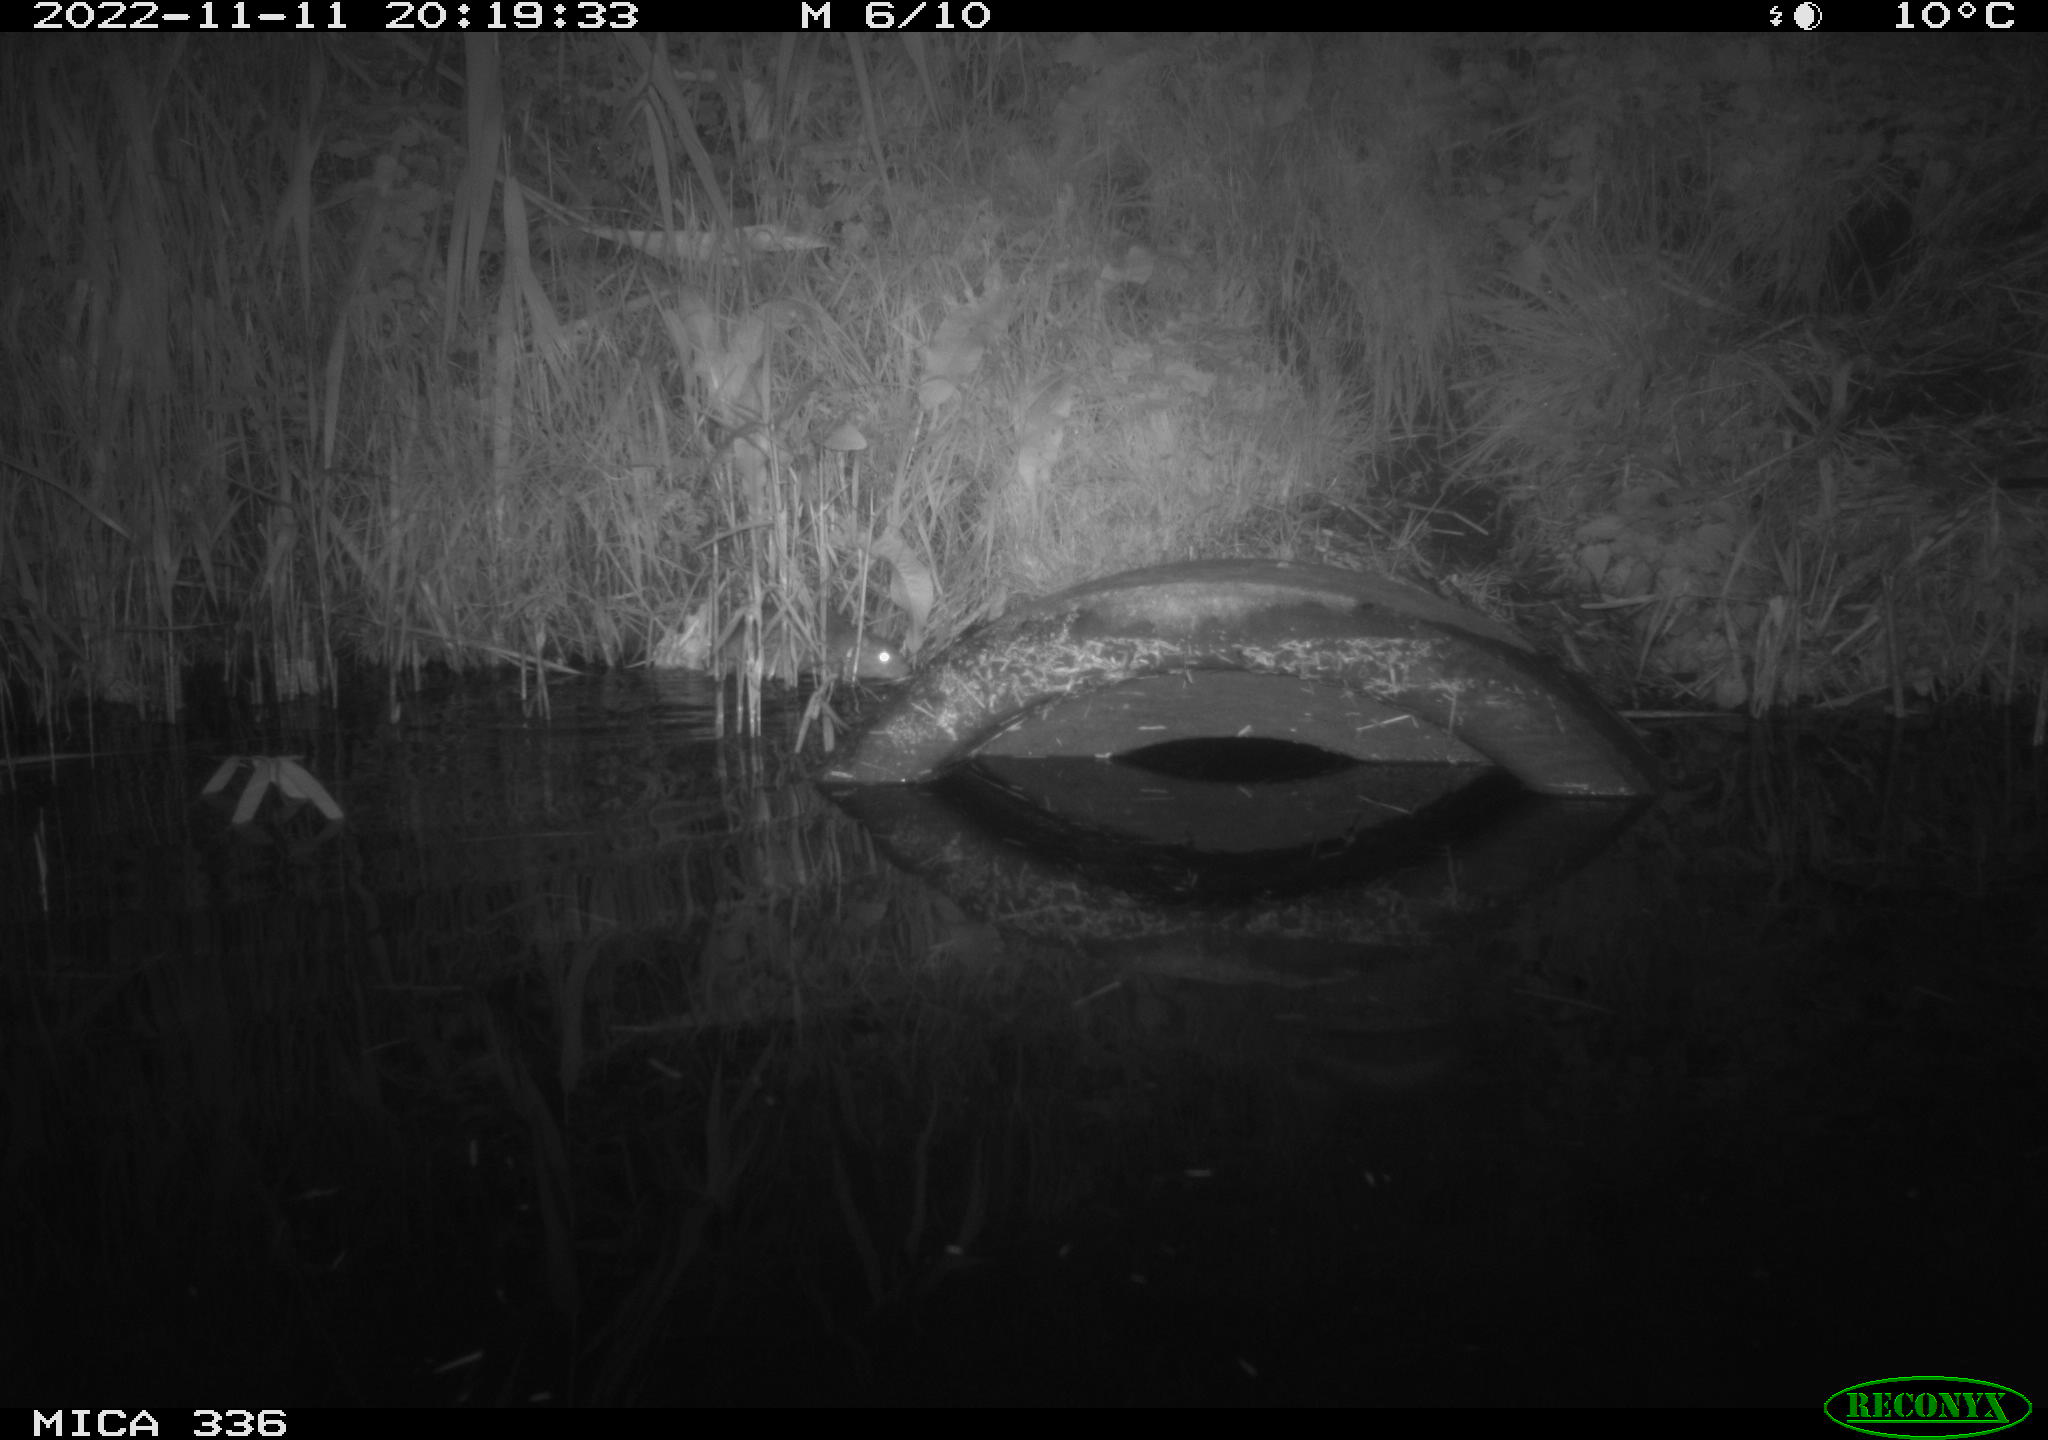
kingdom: Animalia
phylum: Chordata
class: Mammalia
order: Rodentia
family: Muridae
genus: Rattus
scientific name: Rattus norvegicus
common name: Brown rat
